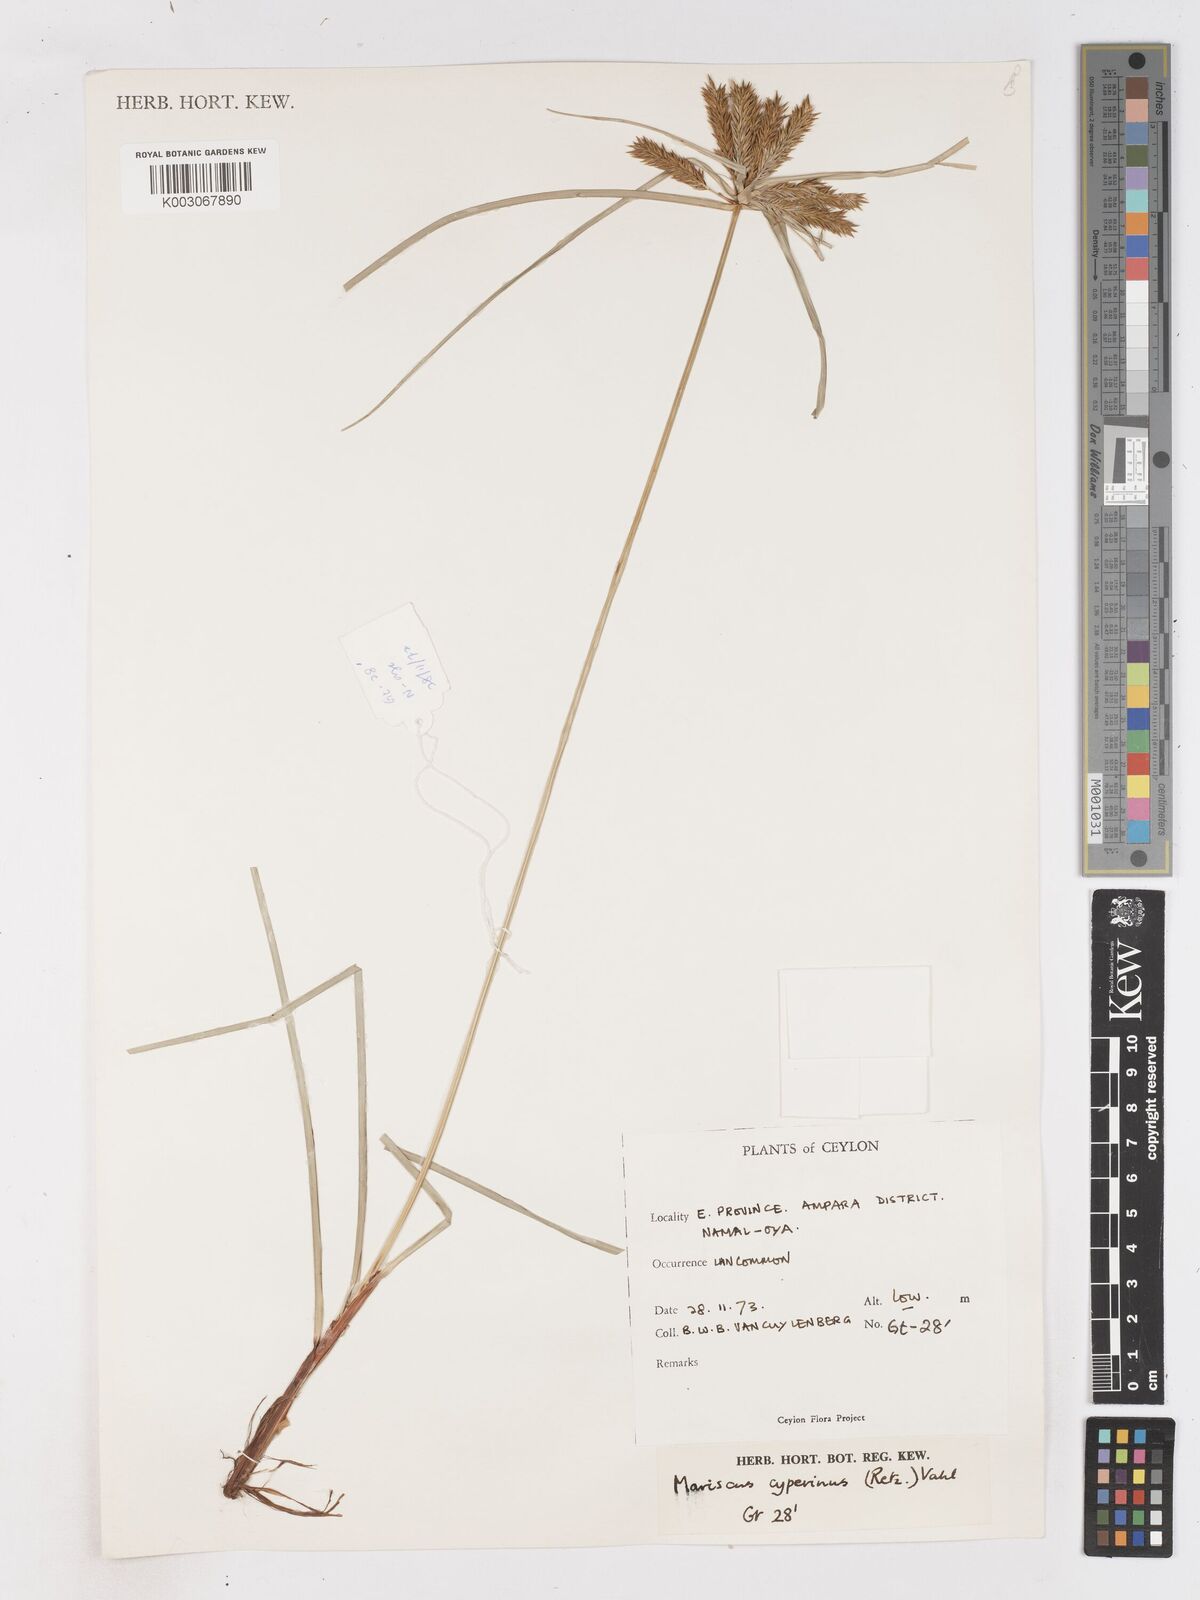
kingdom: Plantae
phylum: Tracheophyta
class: Liliopsida
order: Poales
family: Cyperaceae
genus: Cyperus
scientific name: Cyperus cyperinus
